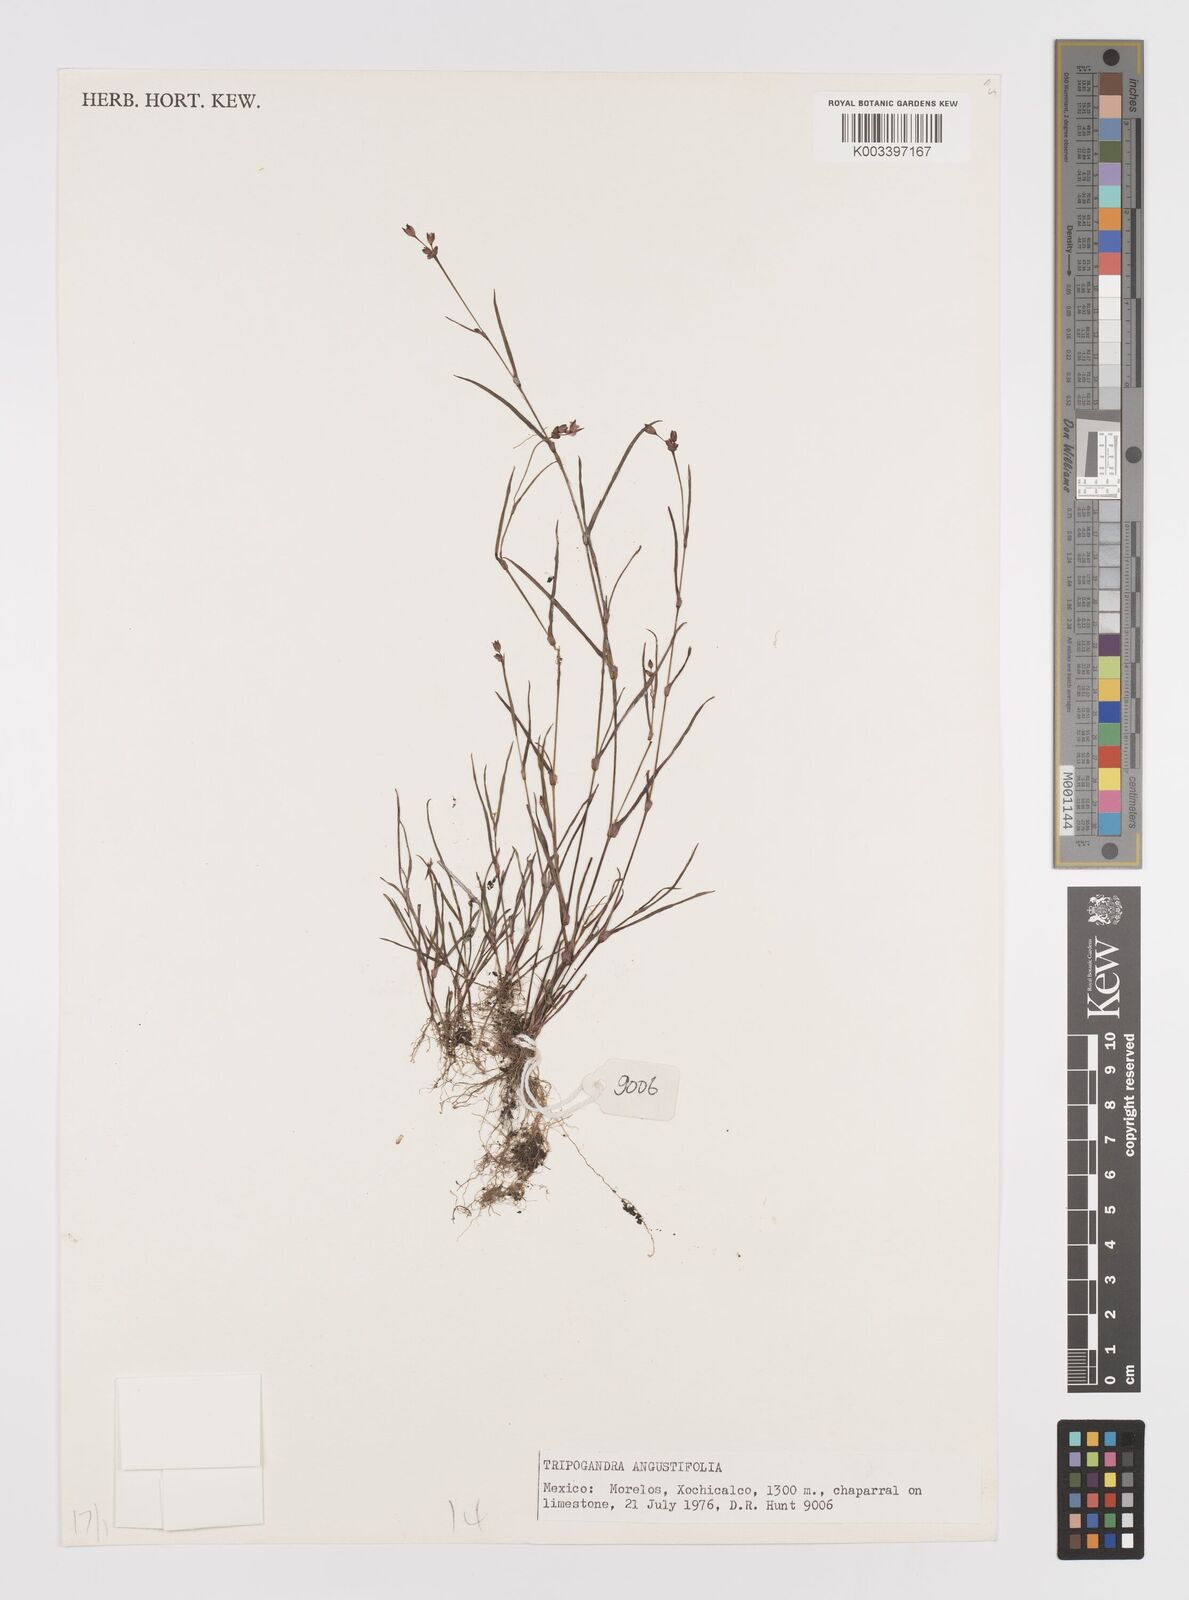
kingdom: Plantae
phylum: Tracheophyta
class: Liliopsida
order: Commelinales
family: Commelinaceae
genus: Callisia
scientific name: Callisia angustifolia
